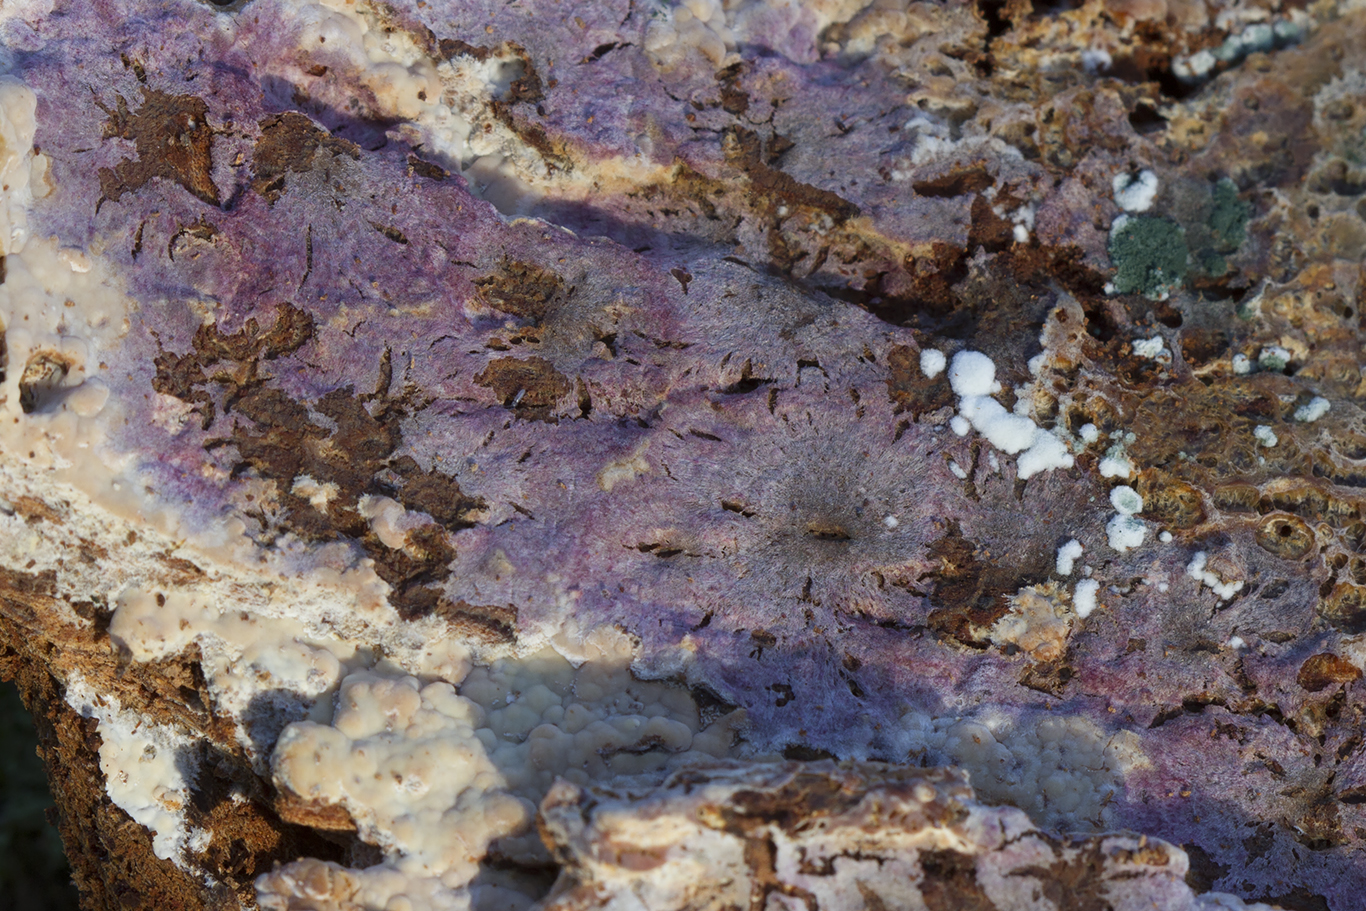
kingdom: Fungi
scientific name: Fungi
